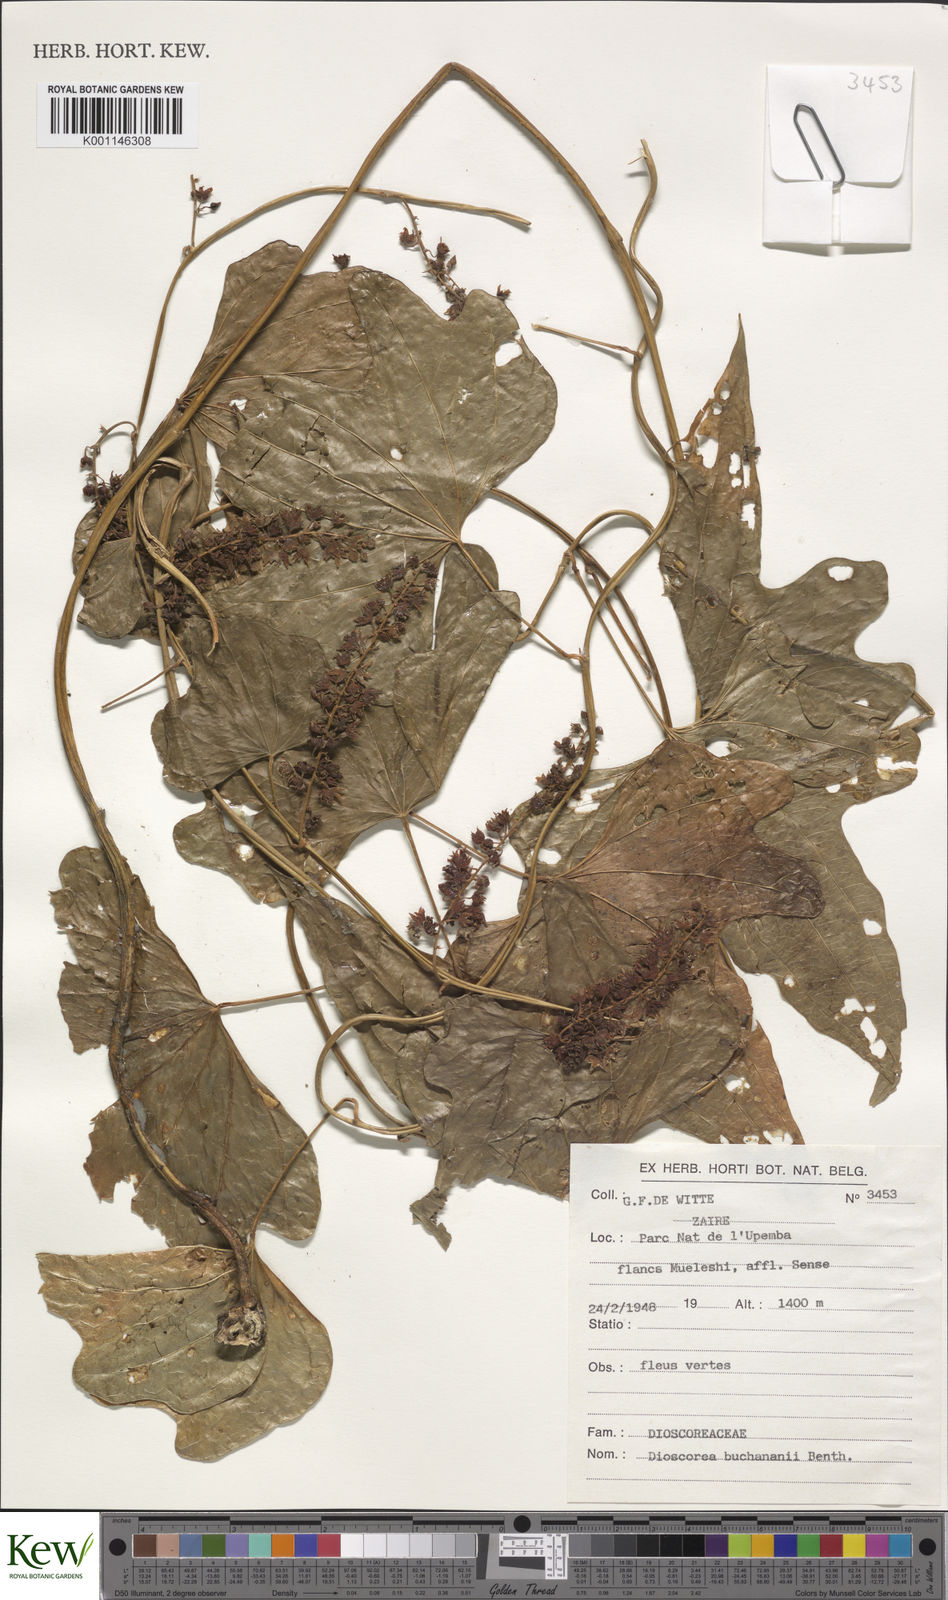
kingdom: Plantae
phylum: Tracheophyta
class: Liliopsida
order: Dioscoreales
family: Dioscoreaceae
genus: Dioscorea
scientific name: Dioscorea buchananii
